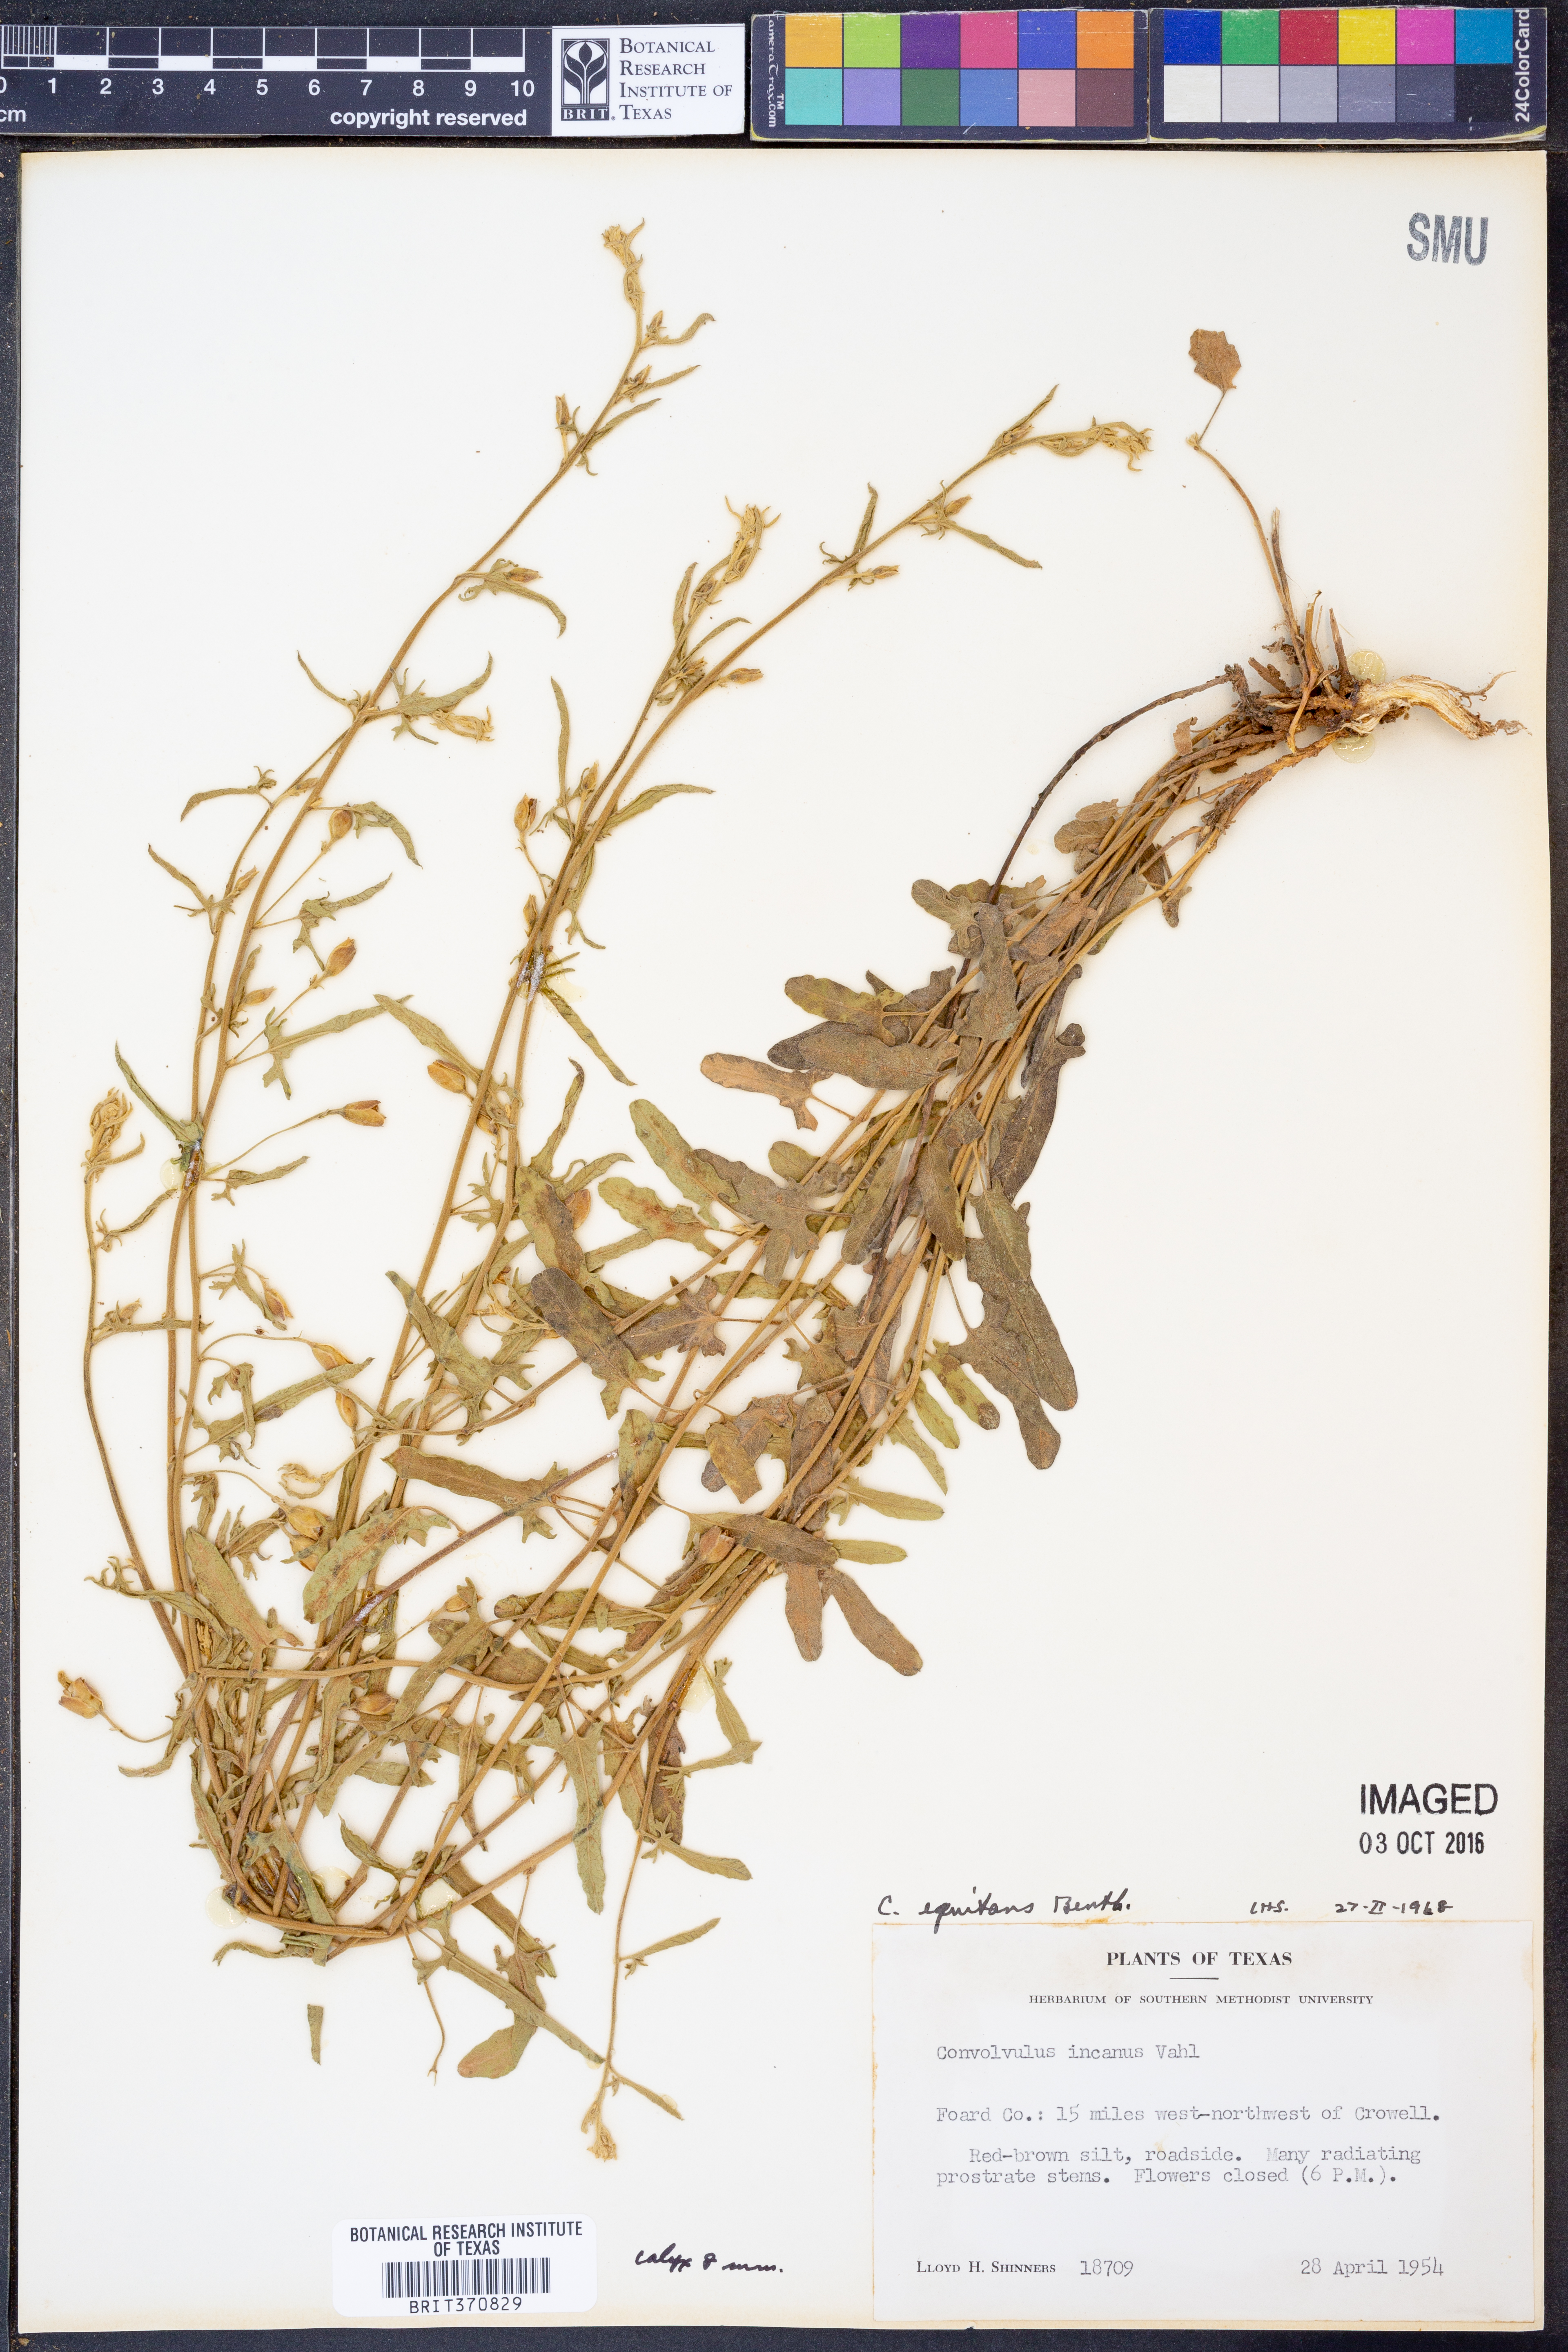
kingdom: Plantae
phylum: Tracheophyta
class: Magnoliopsida
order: Solanales
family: Convolvulaceae
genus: Convolvulus
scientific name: Convolvulus equitans
